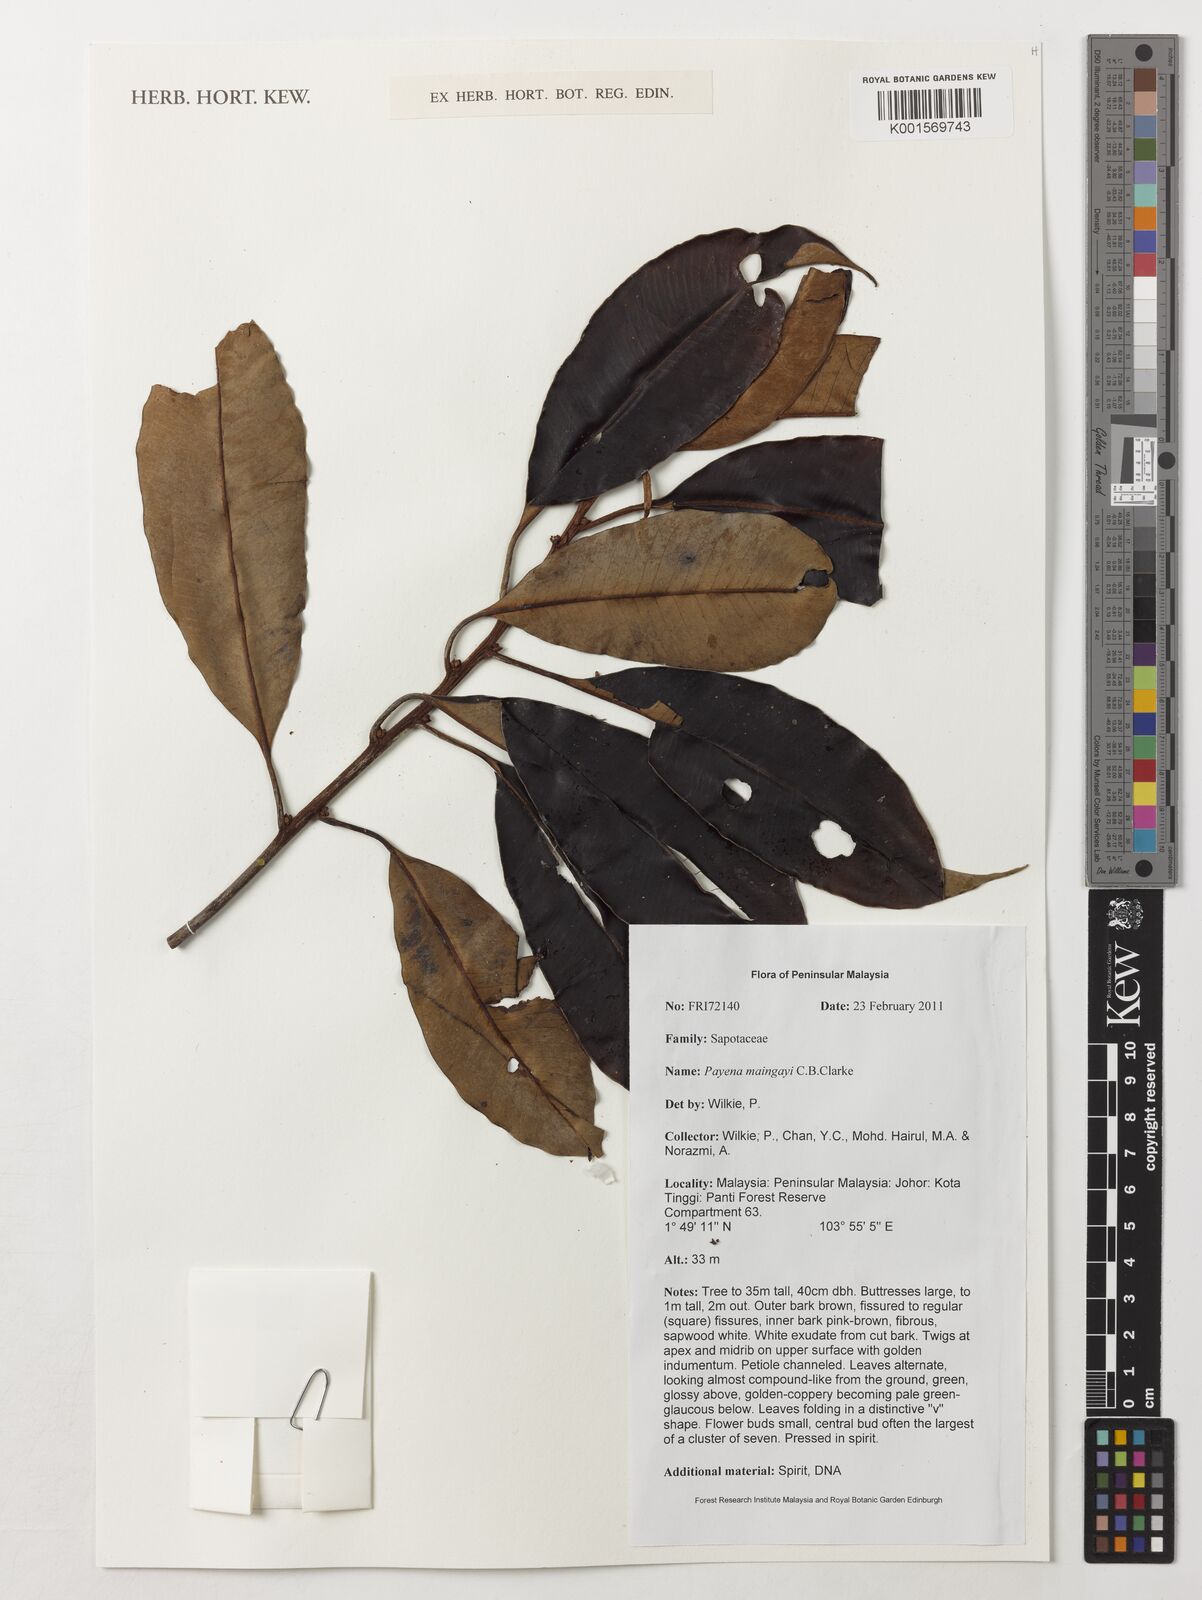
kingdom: Plantae
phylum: Tracheophyta
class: Magnoliopsida
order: Ericales
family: Sapotaceae
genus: Payena
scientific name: Payena maingayi
